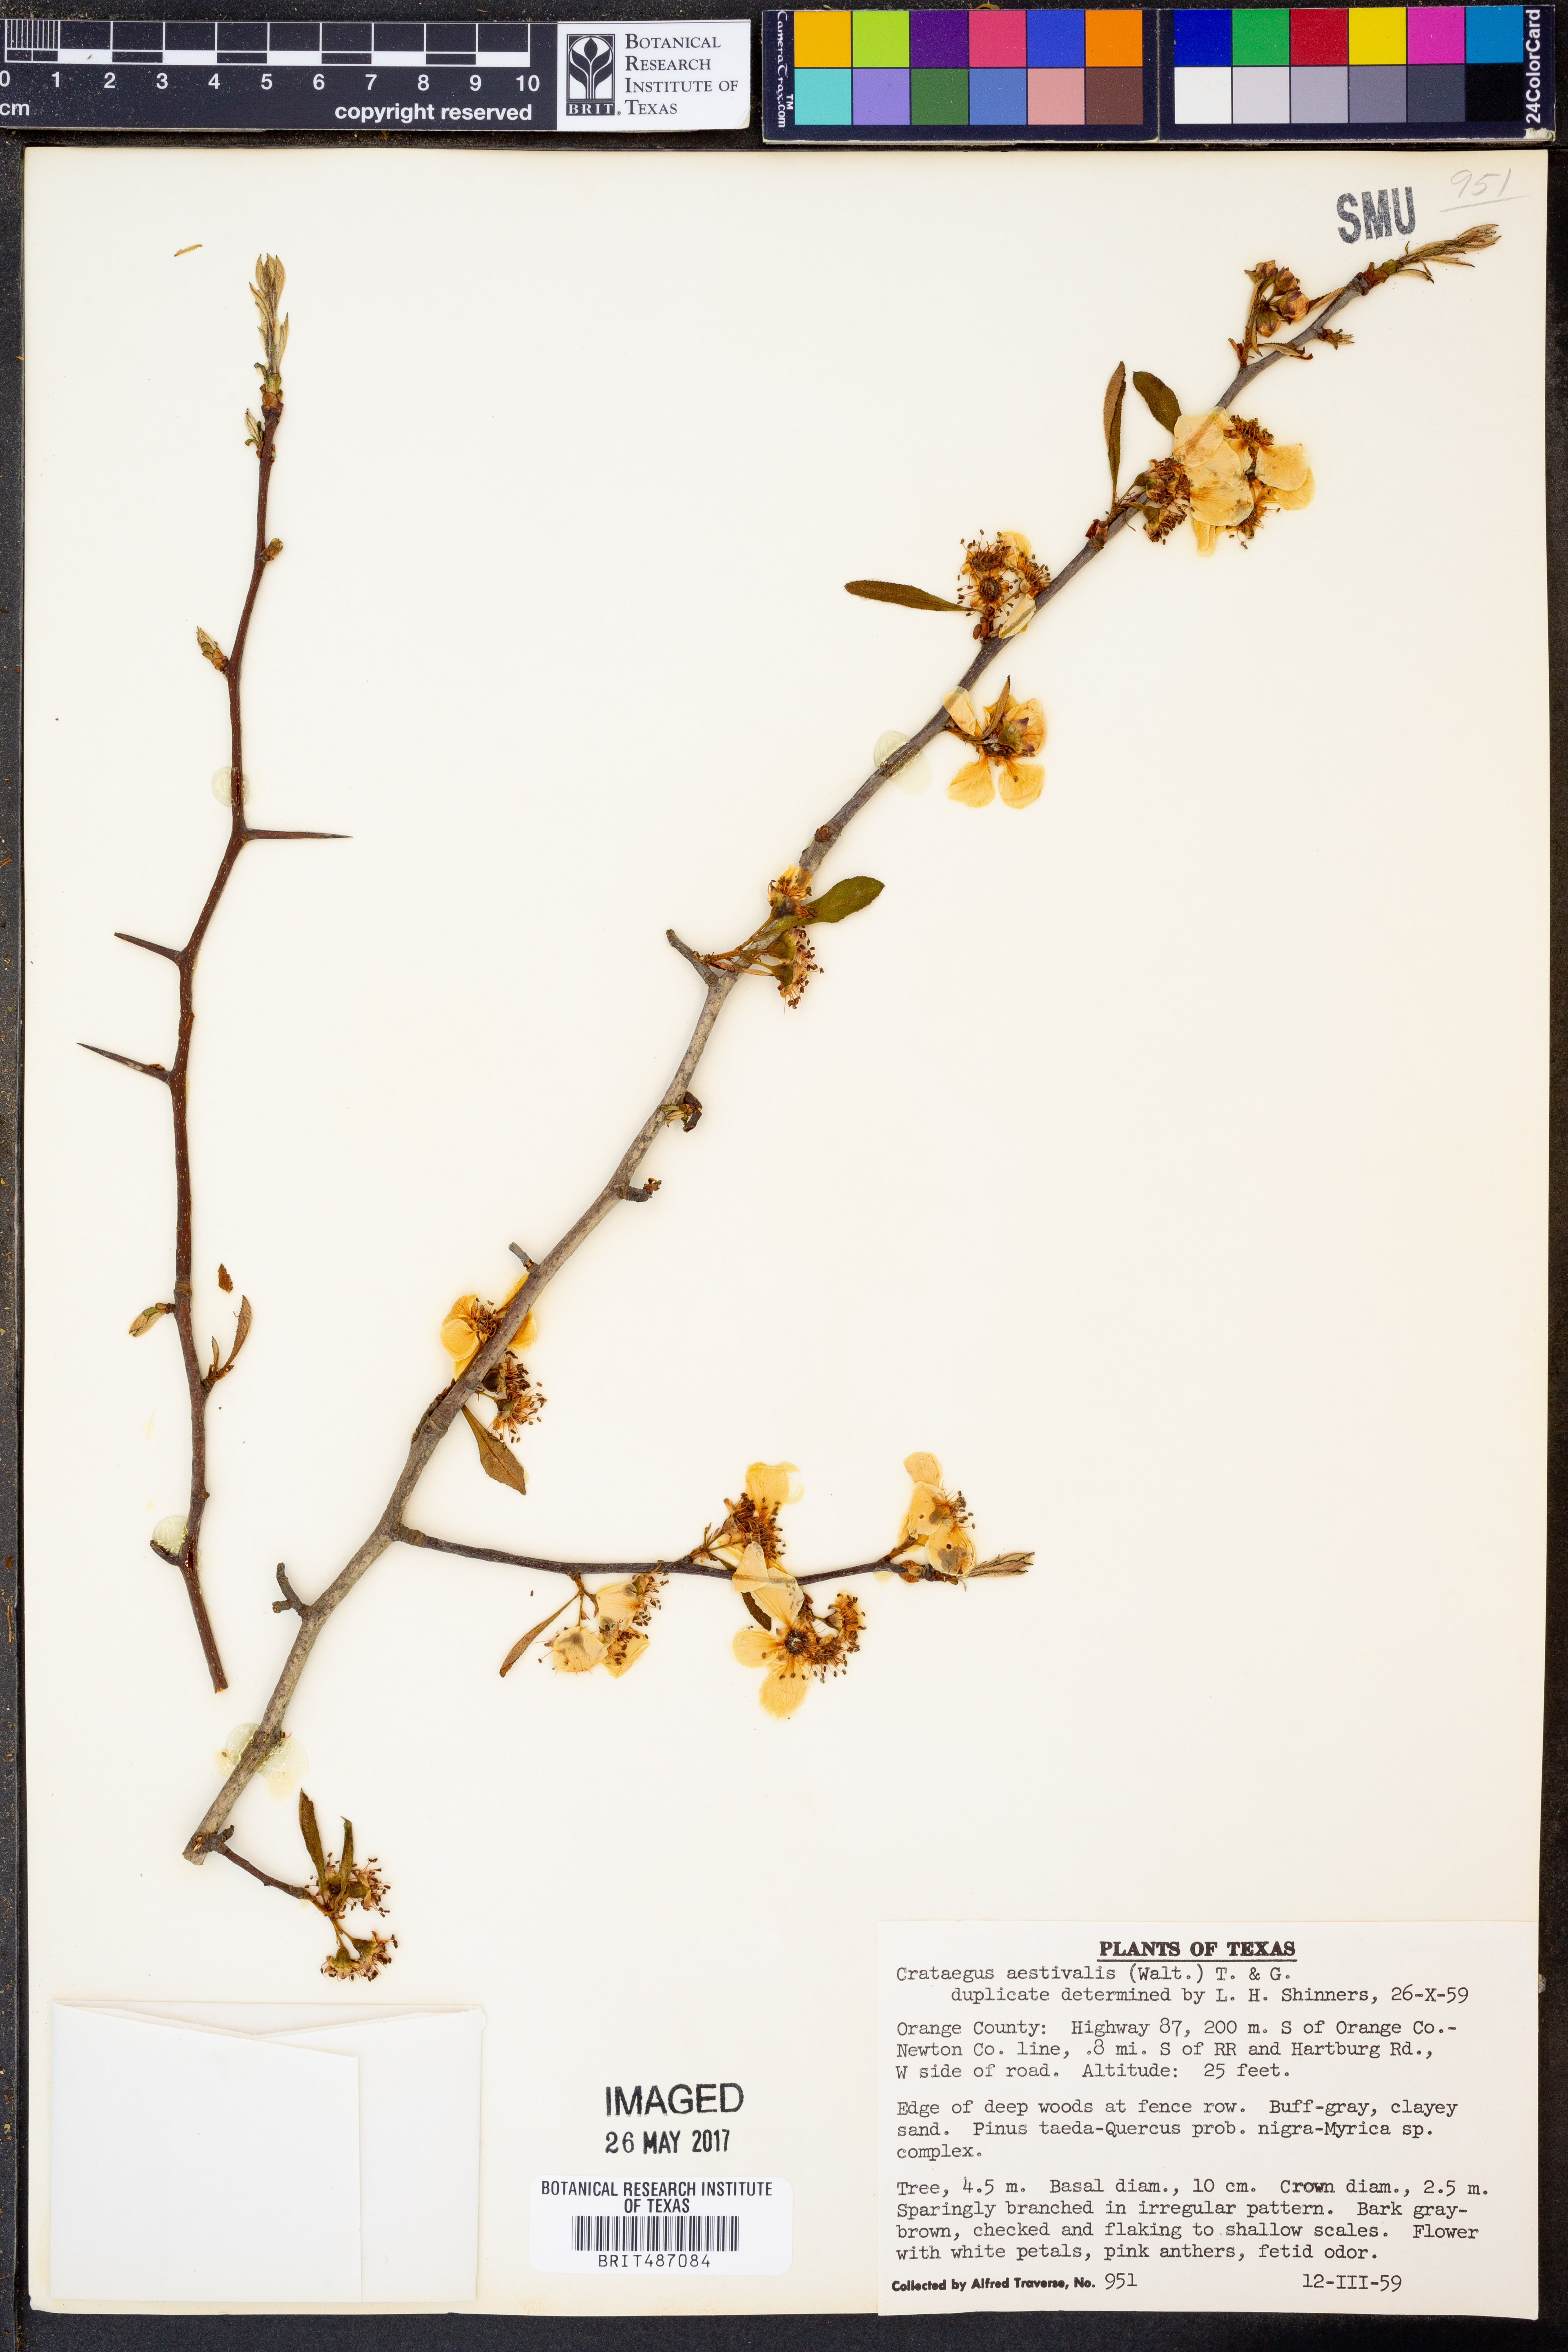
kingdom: Plantae
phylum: Tracheophyta
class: Magnoliopsida
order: Rosales
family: Rosaceae
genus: Crataegus
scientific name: Crataegus aestivalis
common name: Mayhaw
